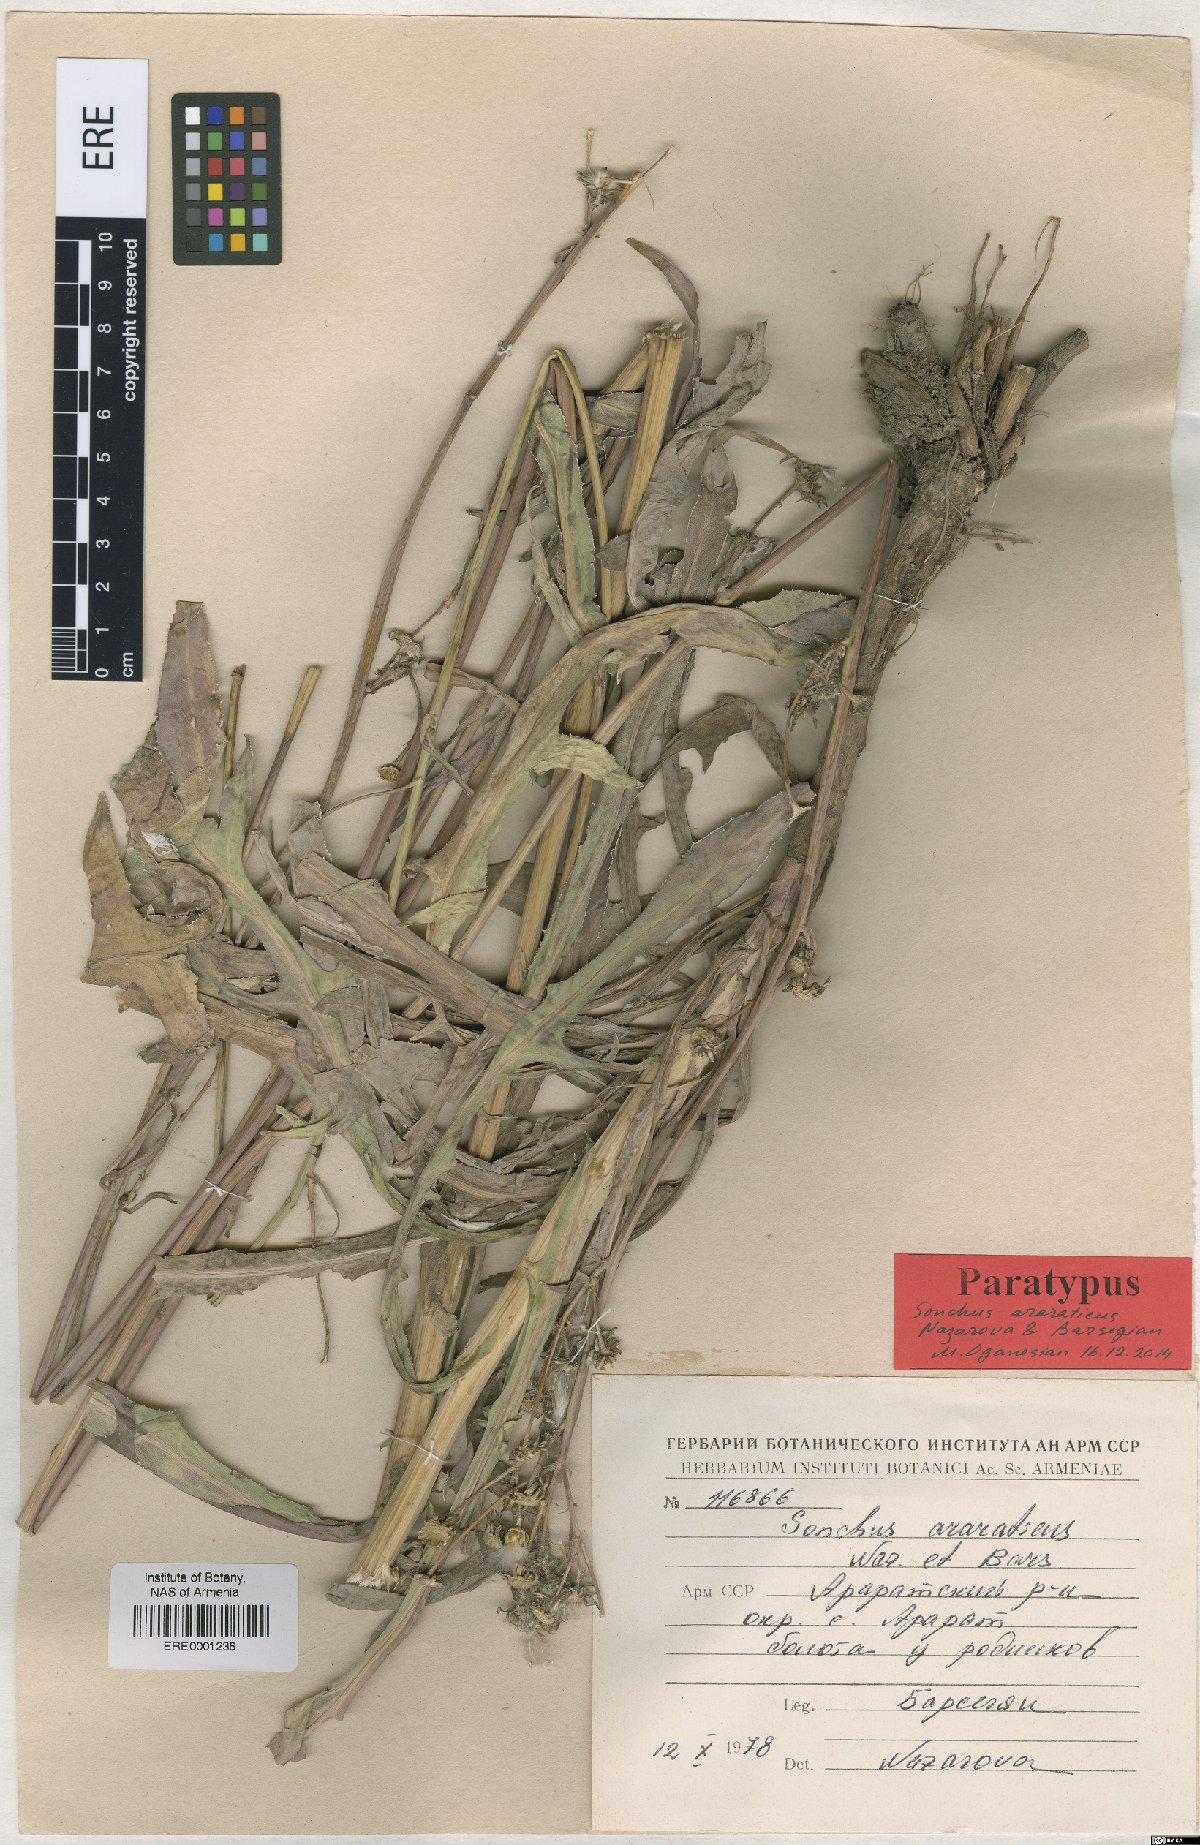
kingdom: Plantae
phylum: Tracheophyta
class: Magnoliopsida
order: Asterales
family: Asteraceae
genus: Sonchus
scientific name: Sonchus araraticus
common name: Araratian sow-thistle
